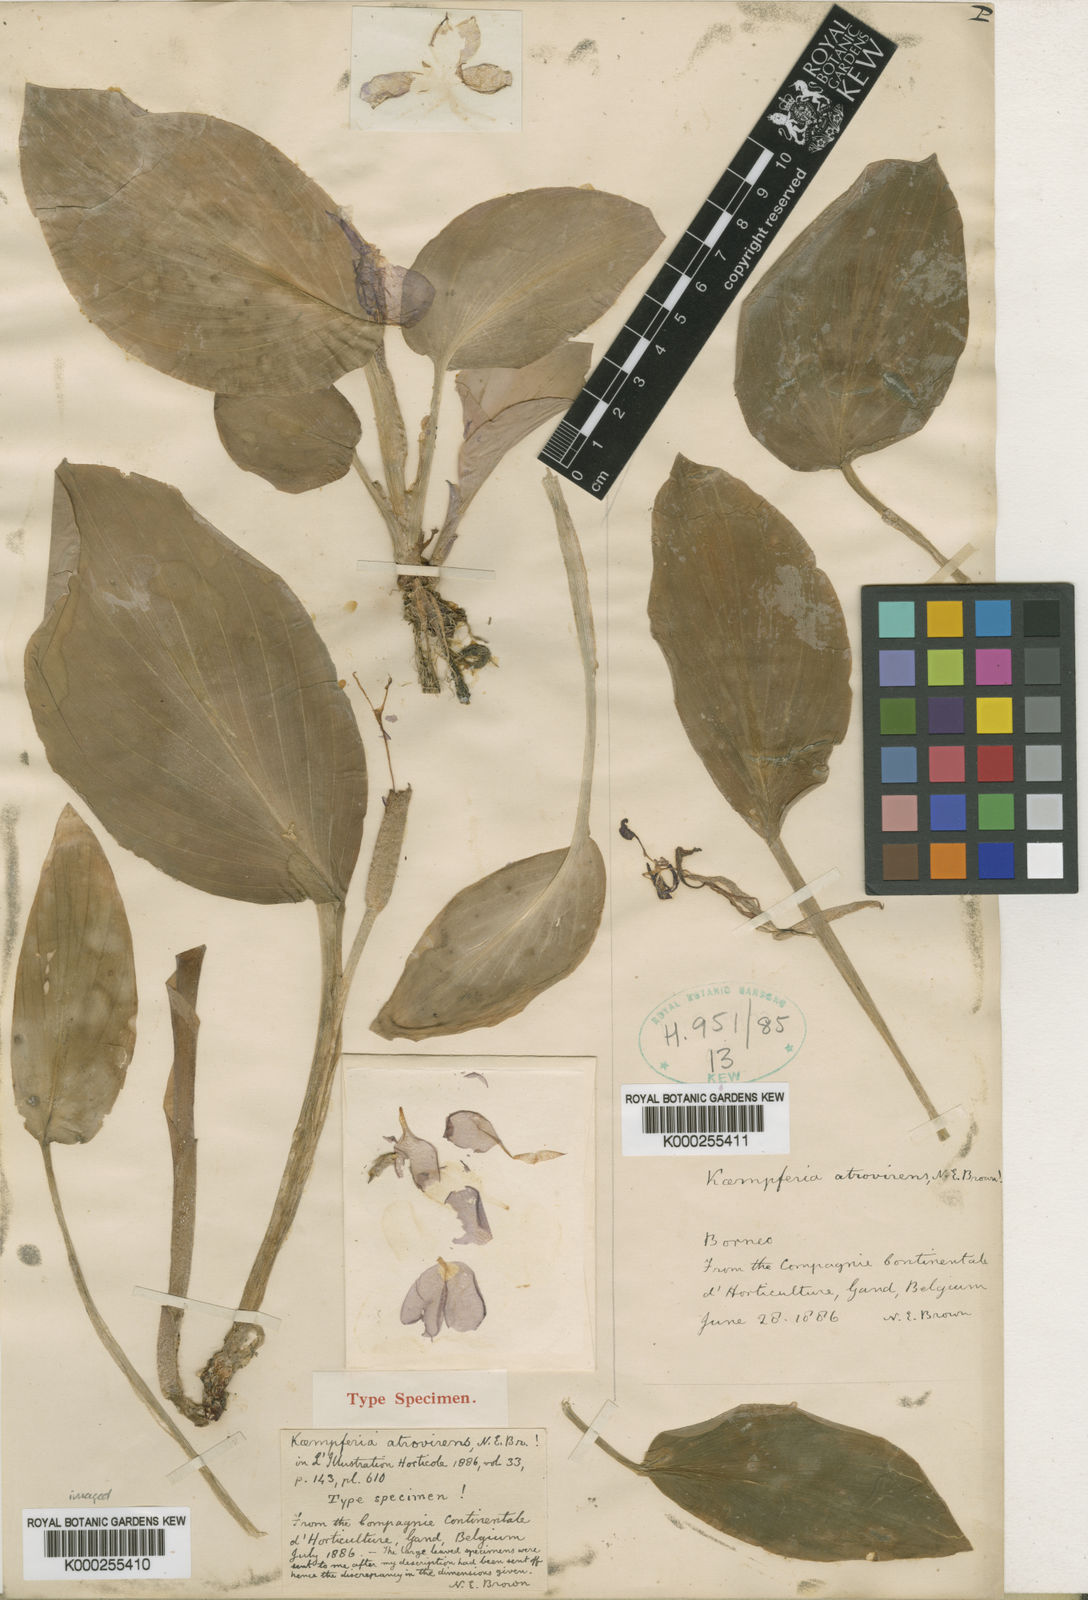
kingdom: Plantae
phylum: Tracheophyta
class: Liliopsida
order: Zingiberales
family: Zingiberaceae
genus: Kaempferia
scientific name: Kaempferia
